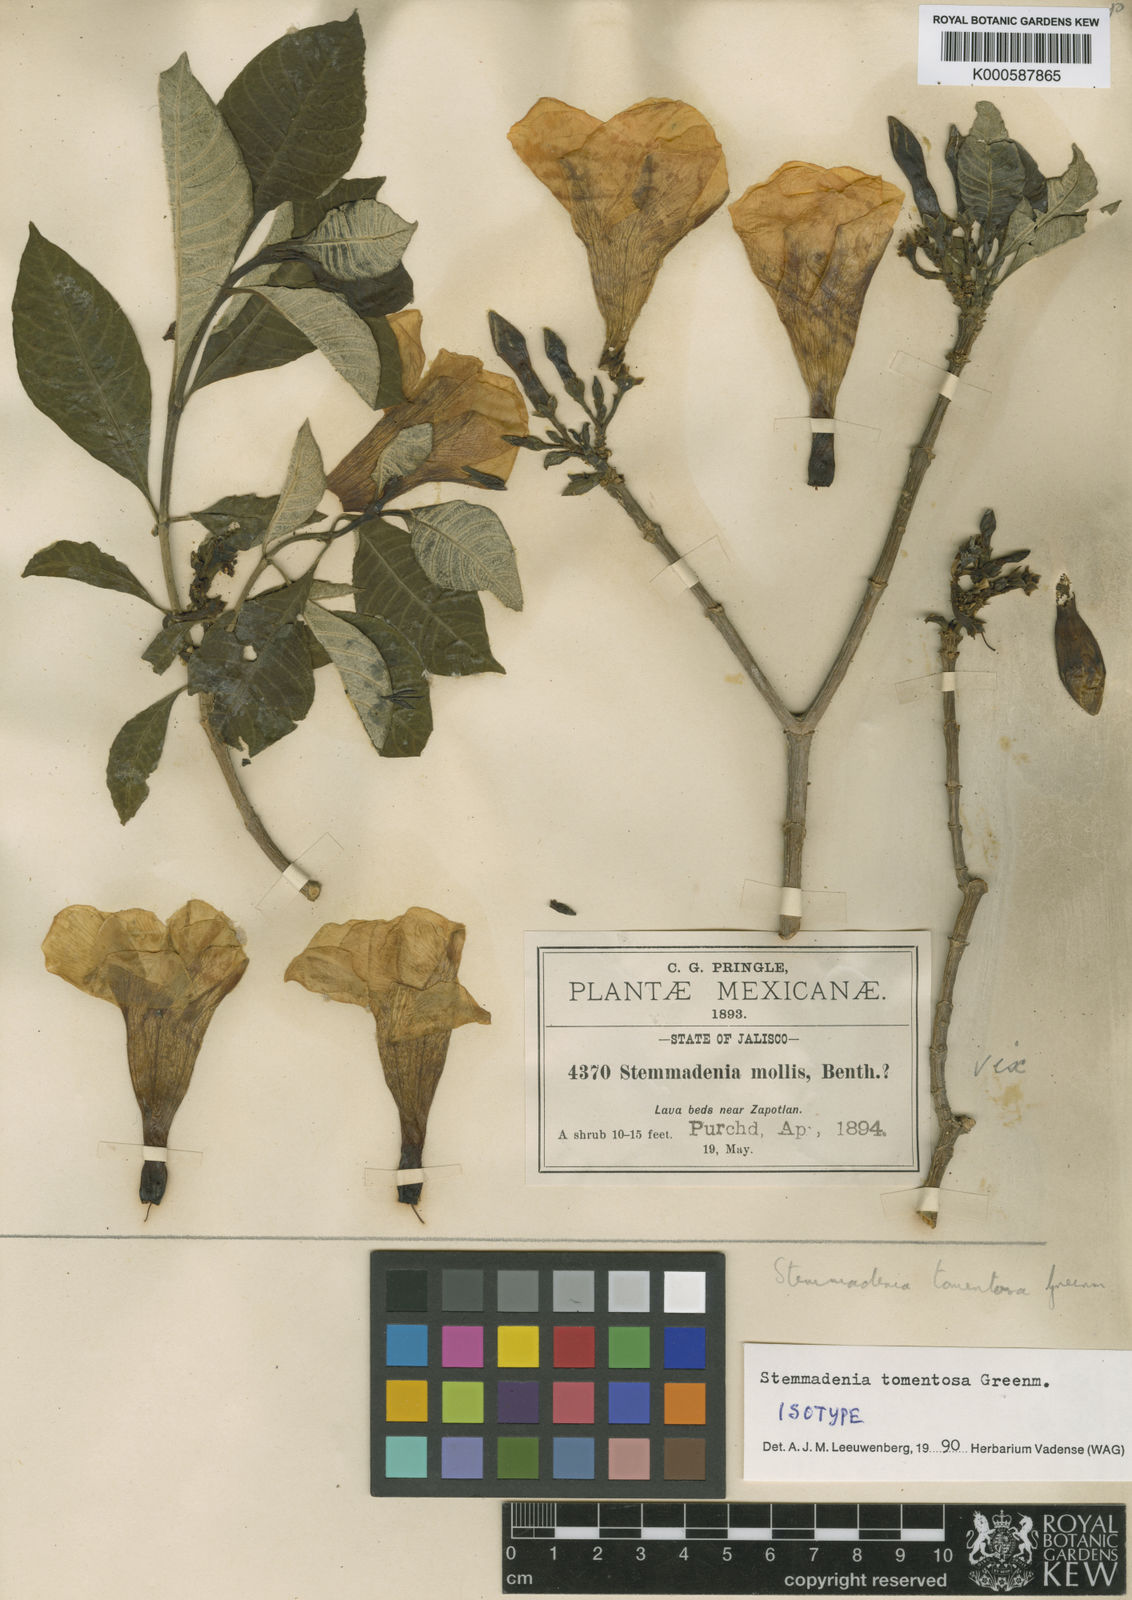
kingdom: Plantae
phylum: Tracheophyta
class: Magnoliopsida
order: Gentianales
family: Apocynaceae
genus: Tabernaemontana
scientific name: Tabernaemontana tomentosa
